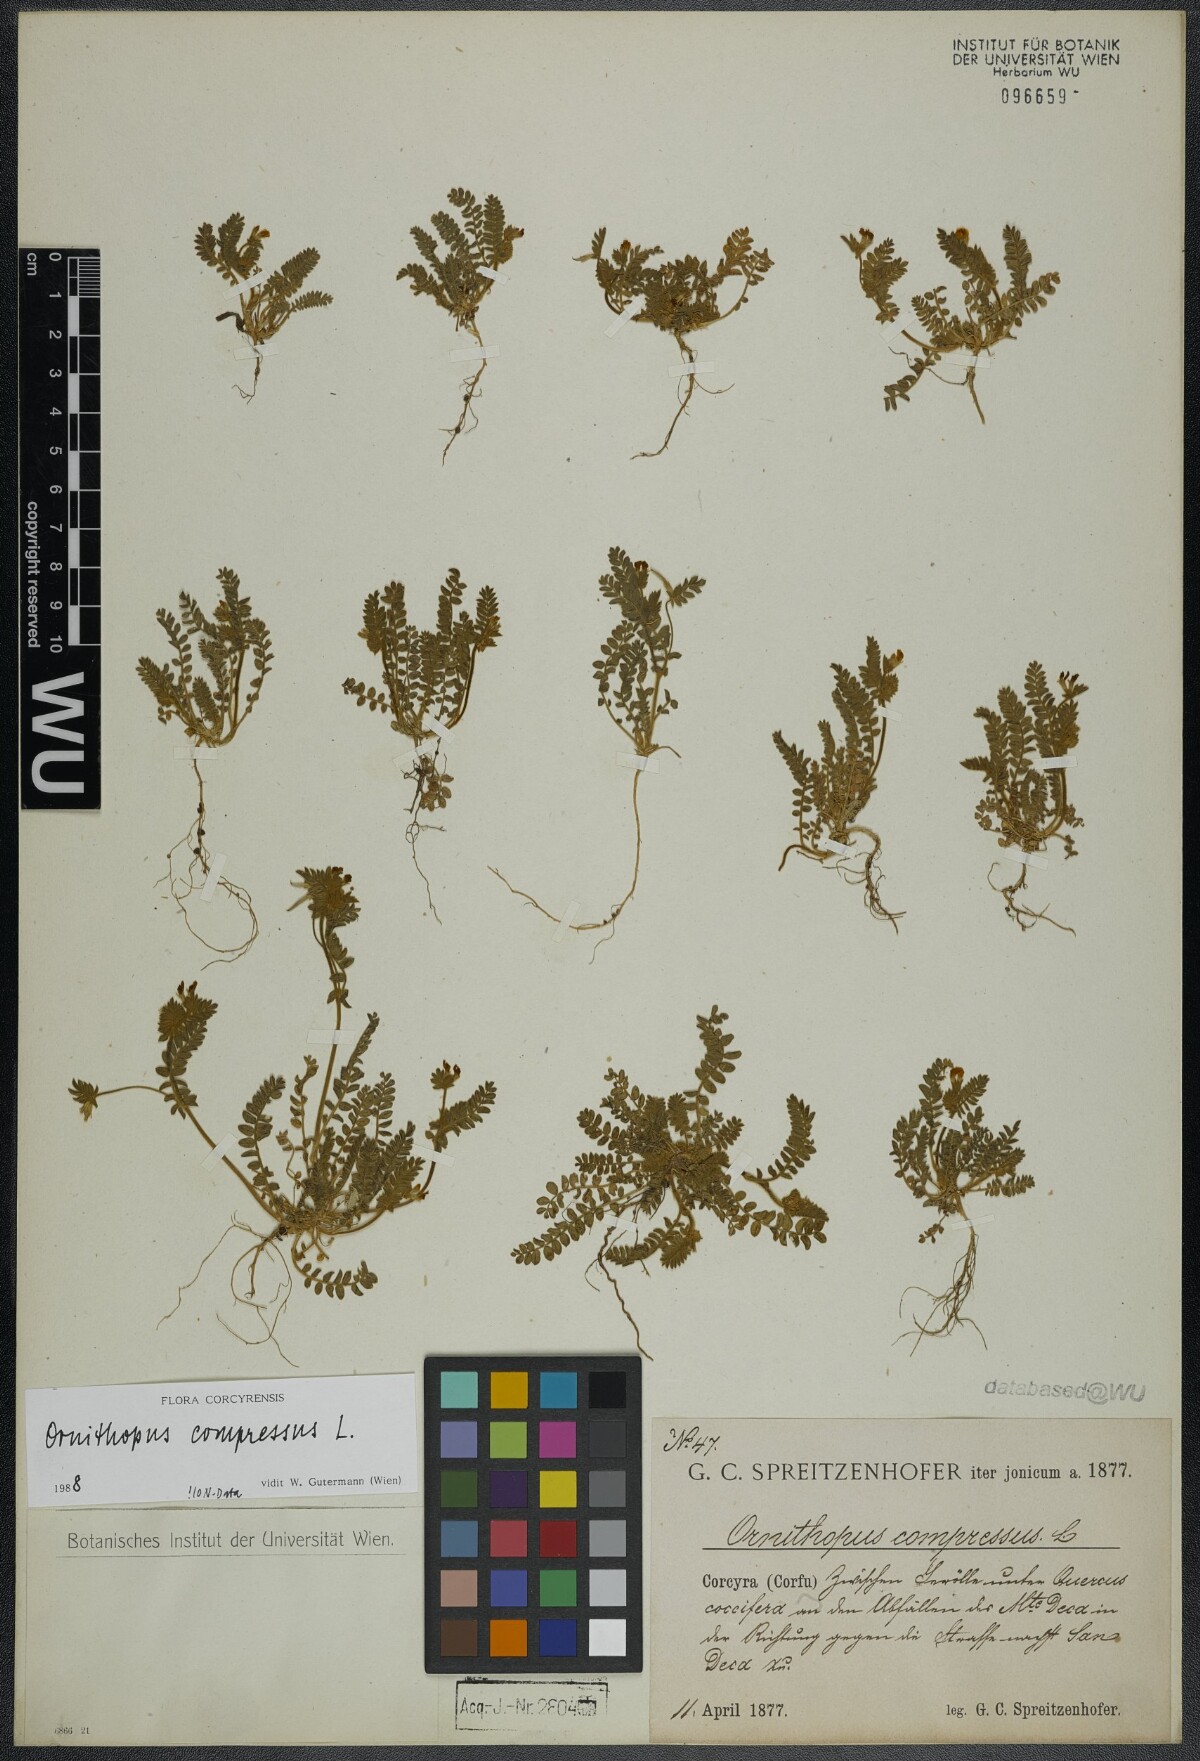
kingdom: Plantae
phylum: Tracheophyta
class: Magnoliopsida
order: Fabales
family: Fabaceae
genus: Ornithopus
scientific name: Ornithopus compressus
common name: Yellow serradella
